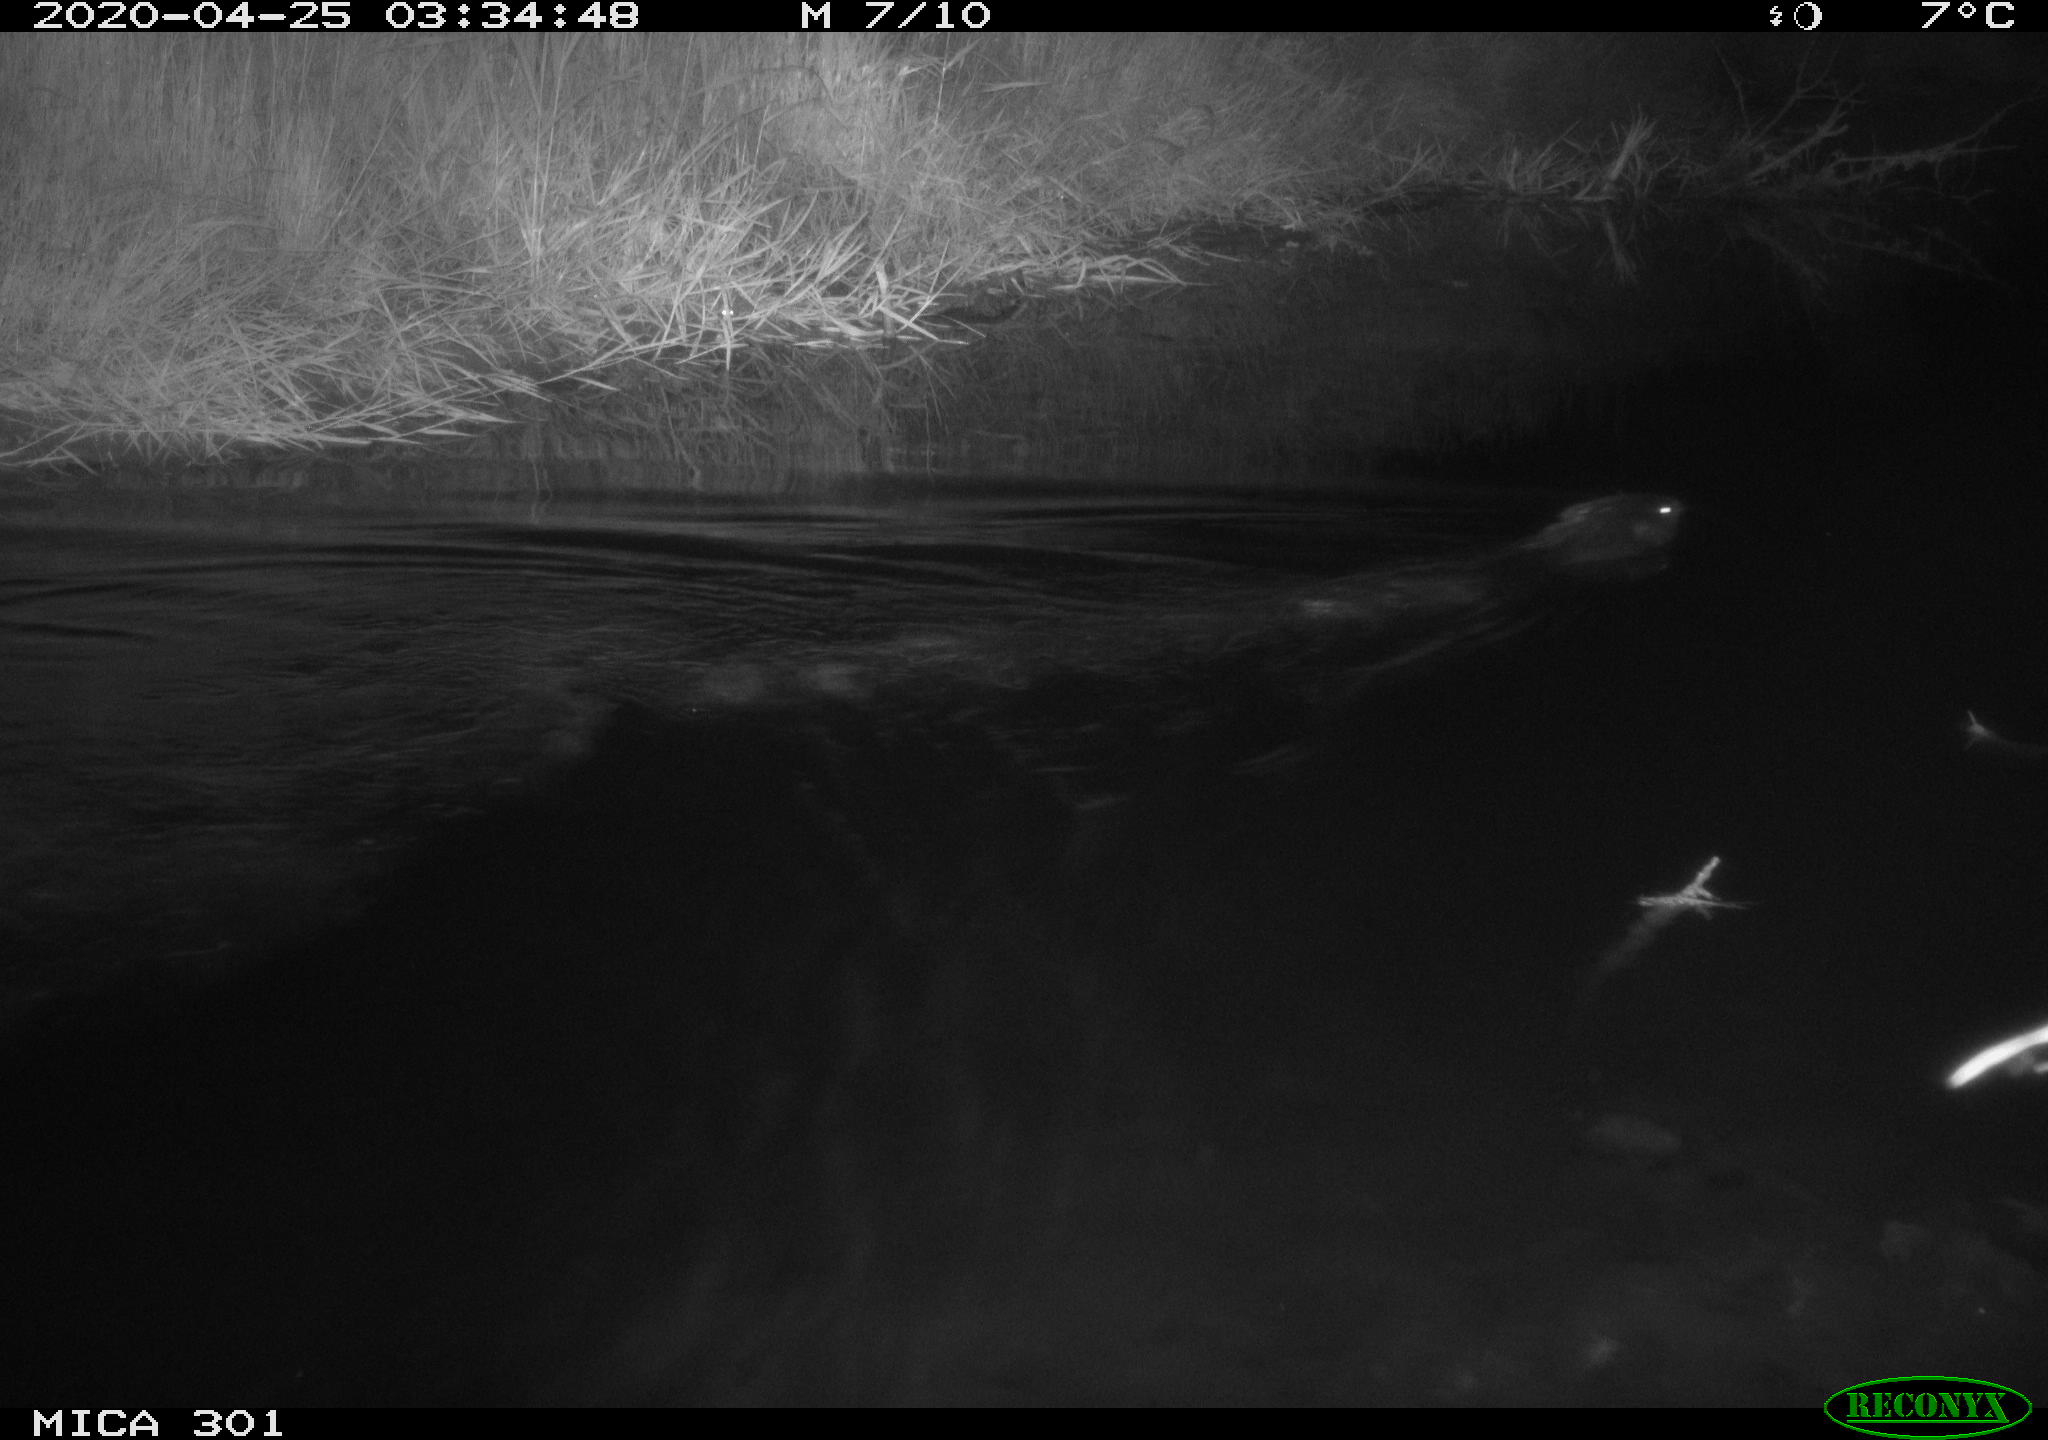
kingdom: Animalia
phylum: Chordata
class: Mammalia
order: Rodentia
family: Castoridae
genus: Castor
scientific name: Castor fiber
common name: Eurasian beaver
